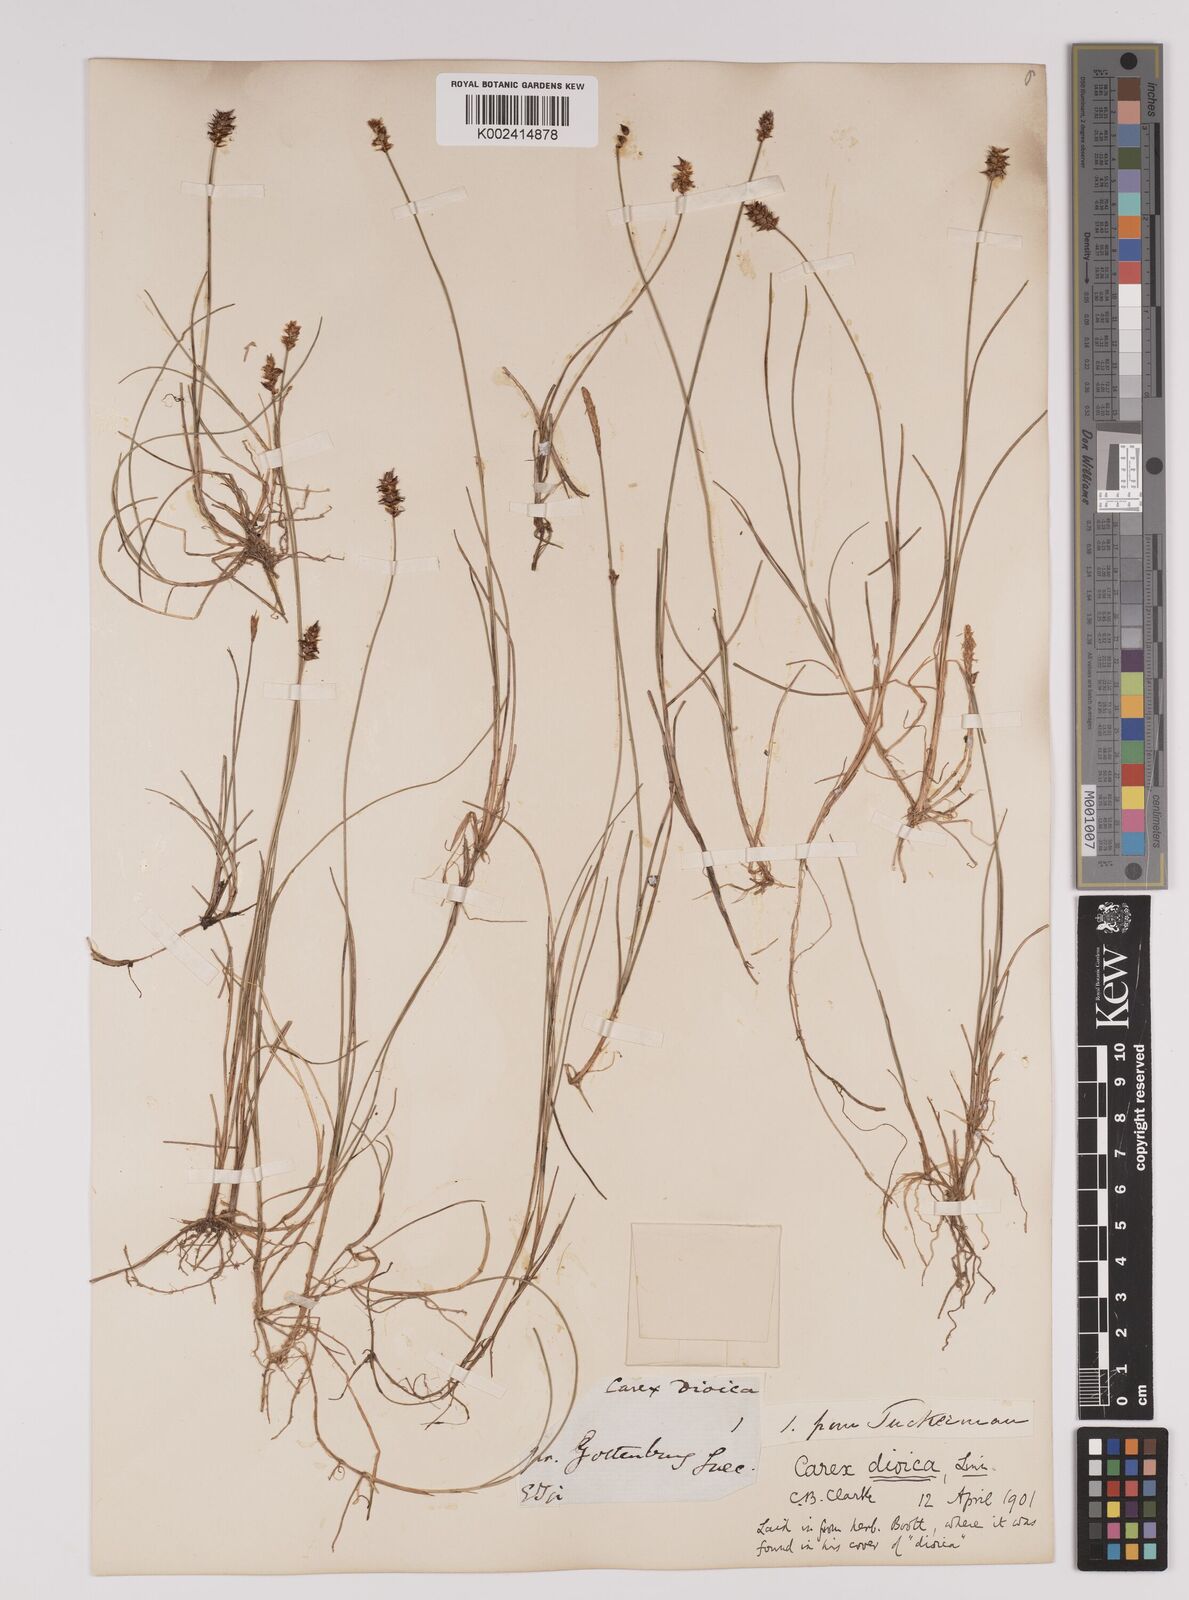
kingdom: Plantae
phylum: Tracheophyta
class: Liliopsida
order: Poales
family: Cyperaceae
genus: Carex
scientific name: Carex dioica
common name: Dioecious sedge
